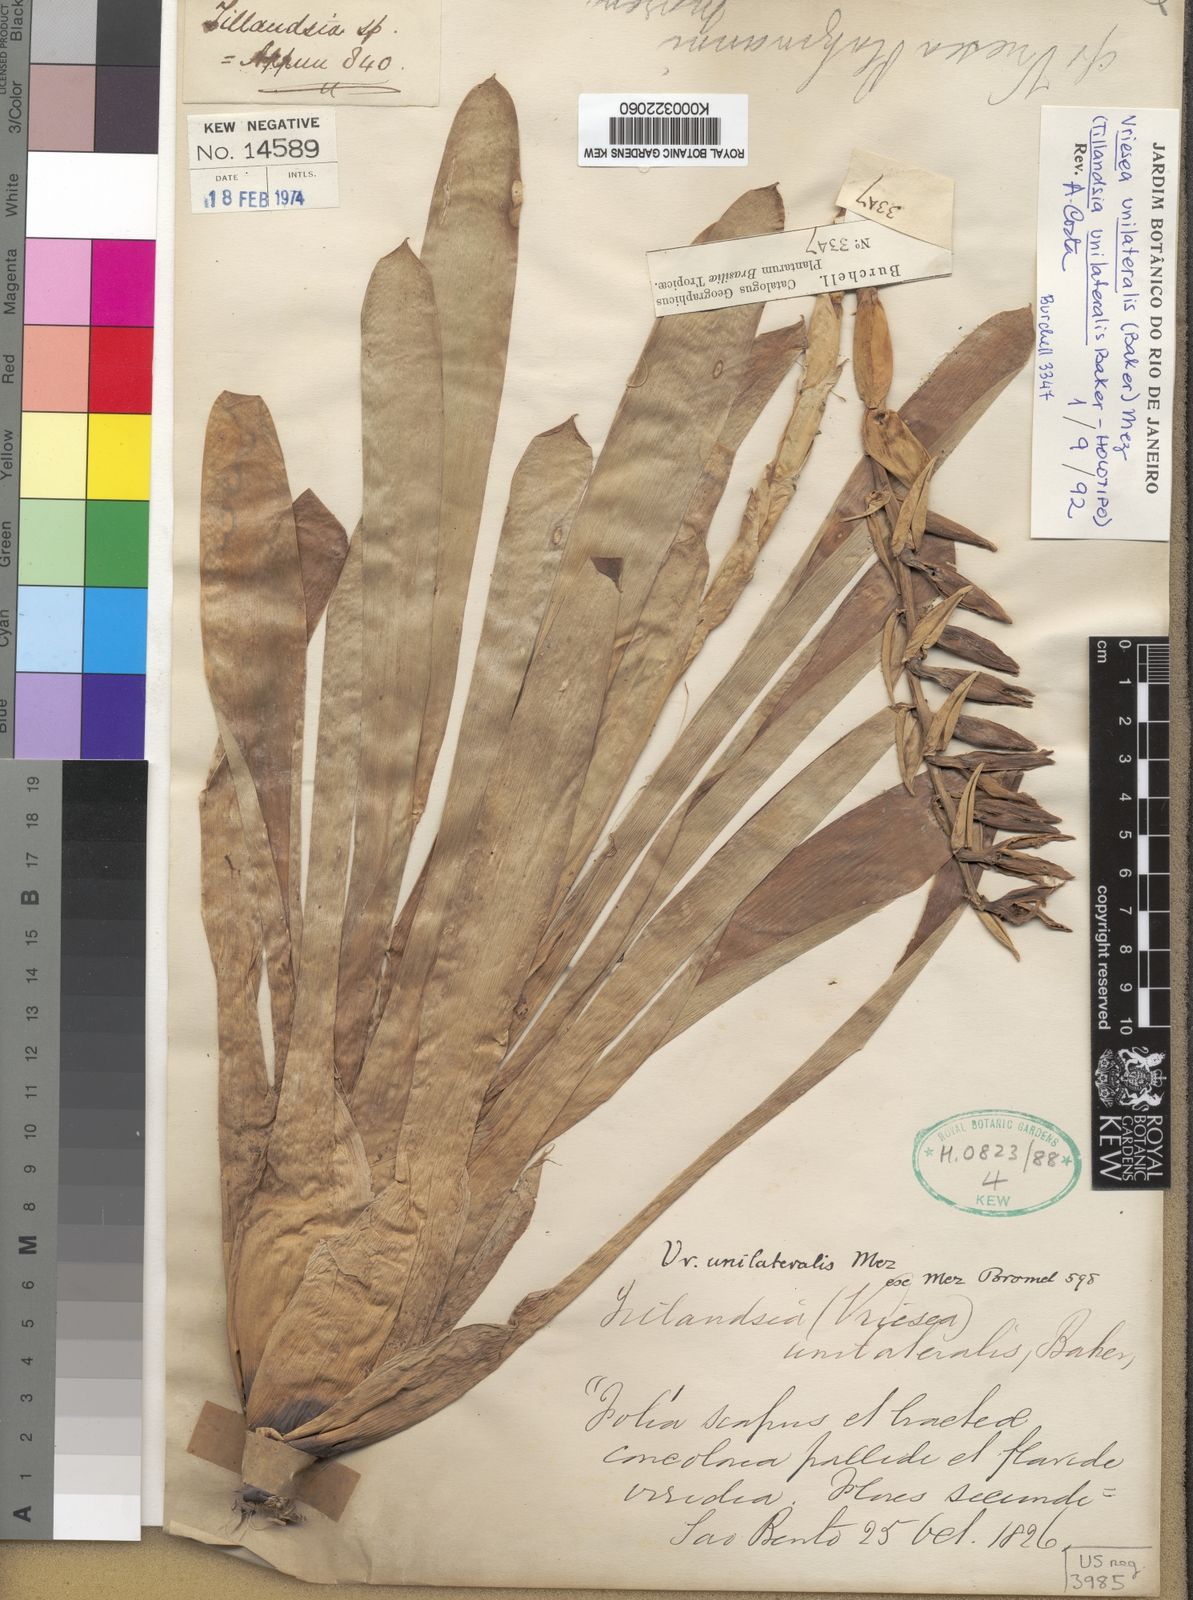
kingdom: Plantae
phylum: Tracheophyta
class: Liliopsida
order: Poales
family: Bromeliaceae
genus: Vriesea
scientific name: Vriesea unilateralis
